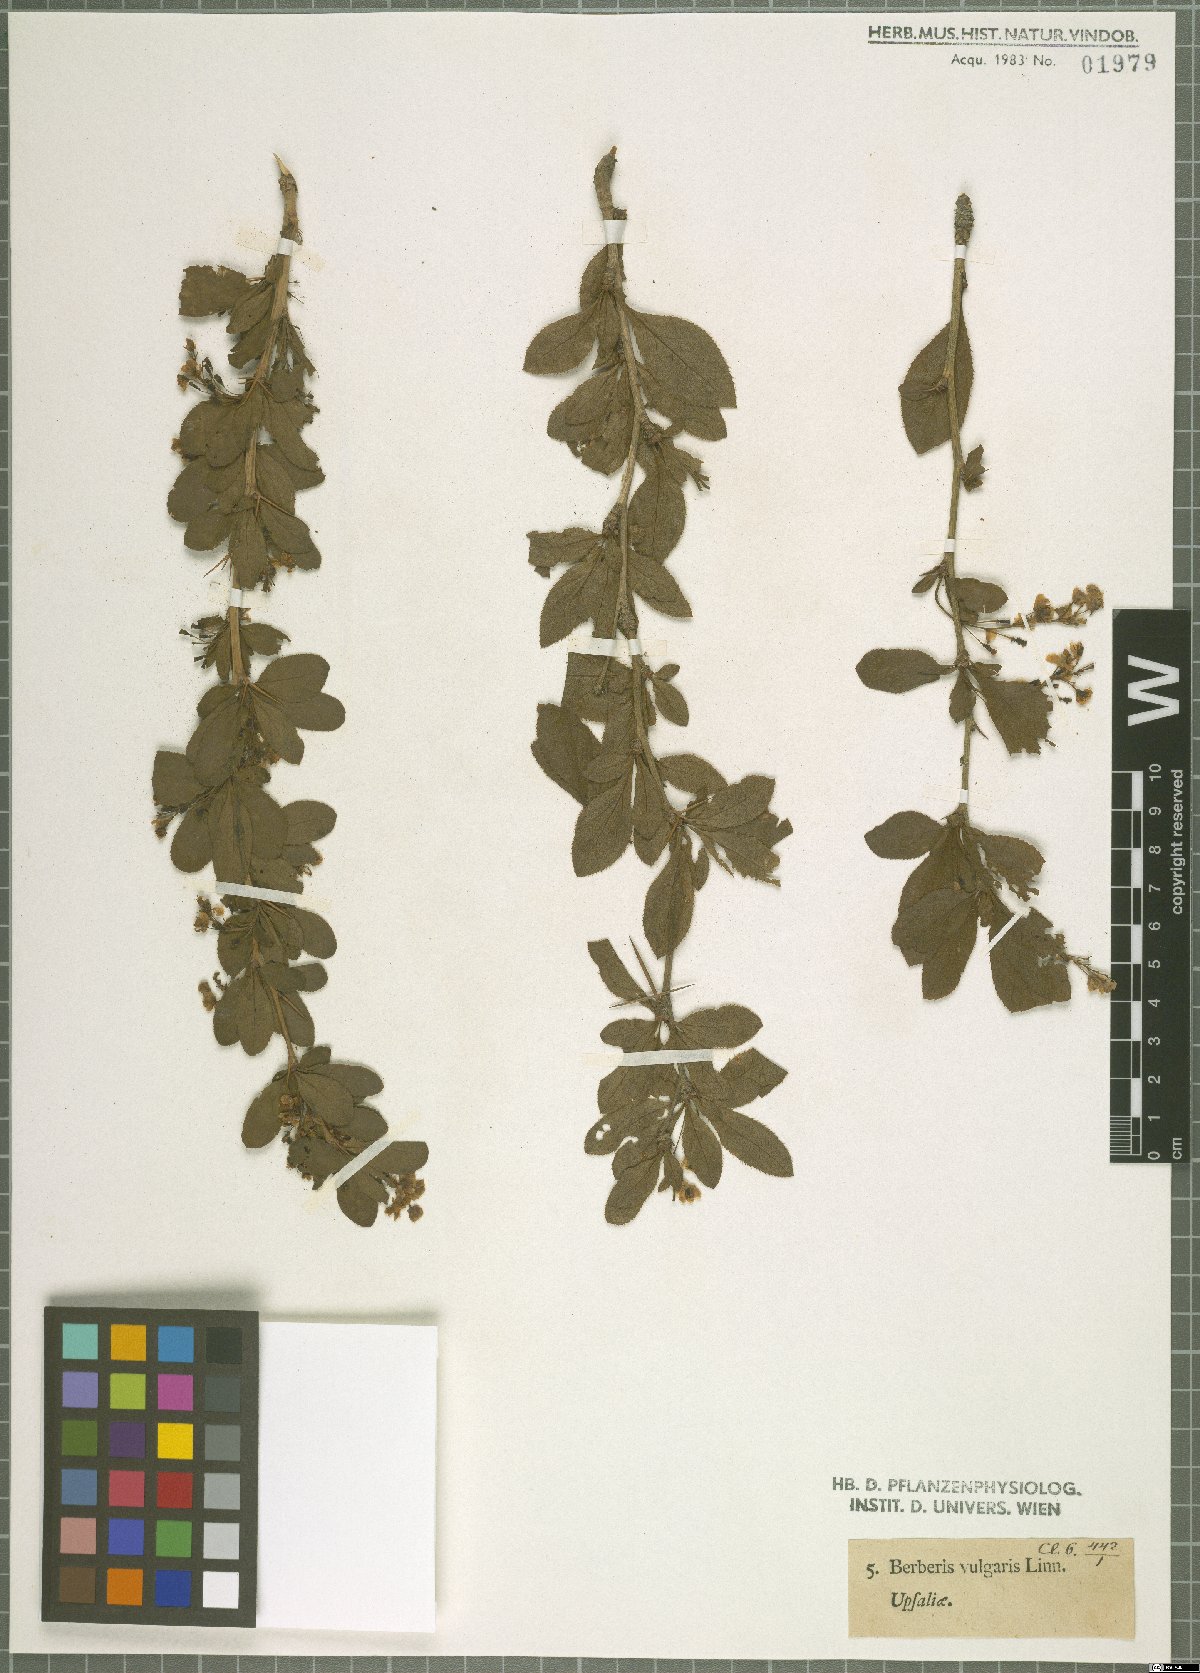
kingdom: Plantae
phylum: Tracheophyta
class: Magnoliopsida
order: Ranunculales
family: Berberidaceae
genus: Berberis
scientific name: Berberis vulgaris
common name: Barberry
